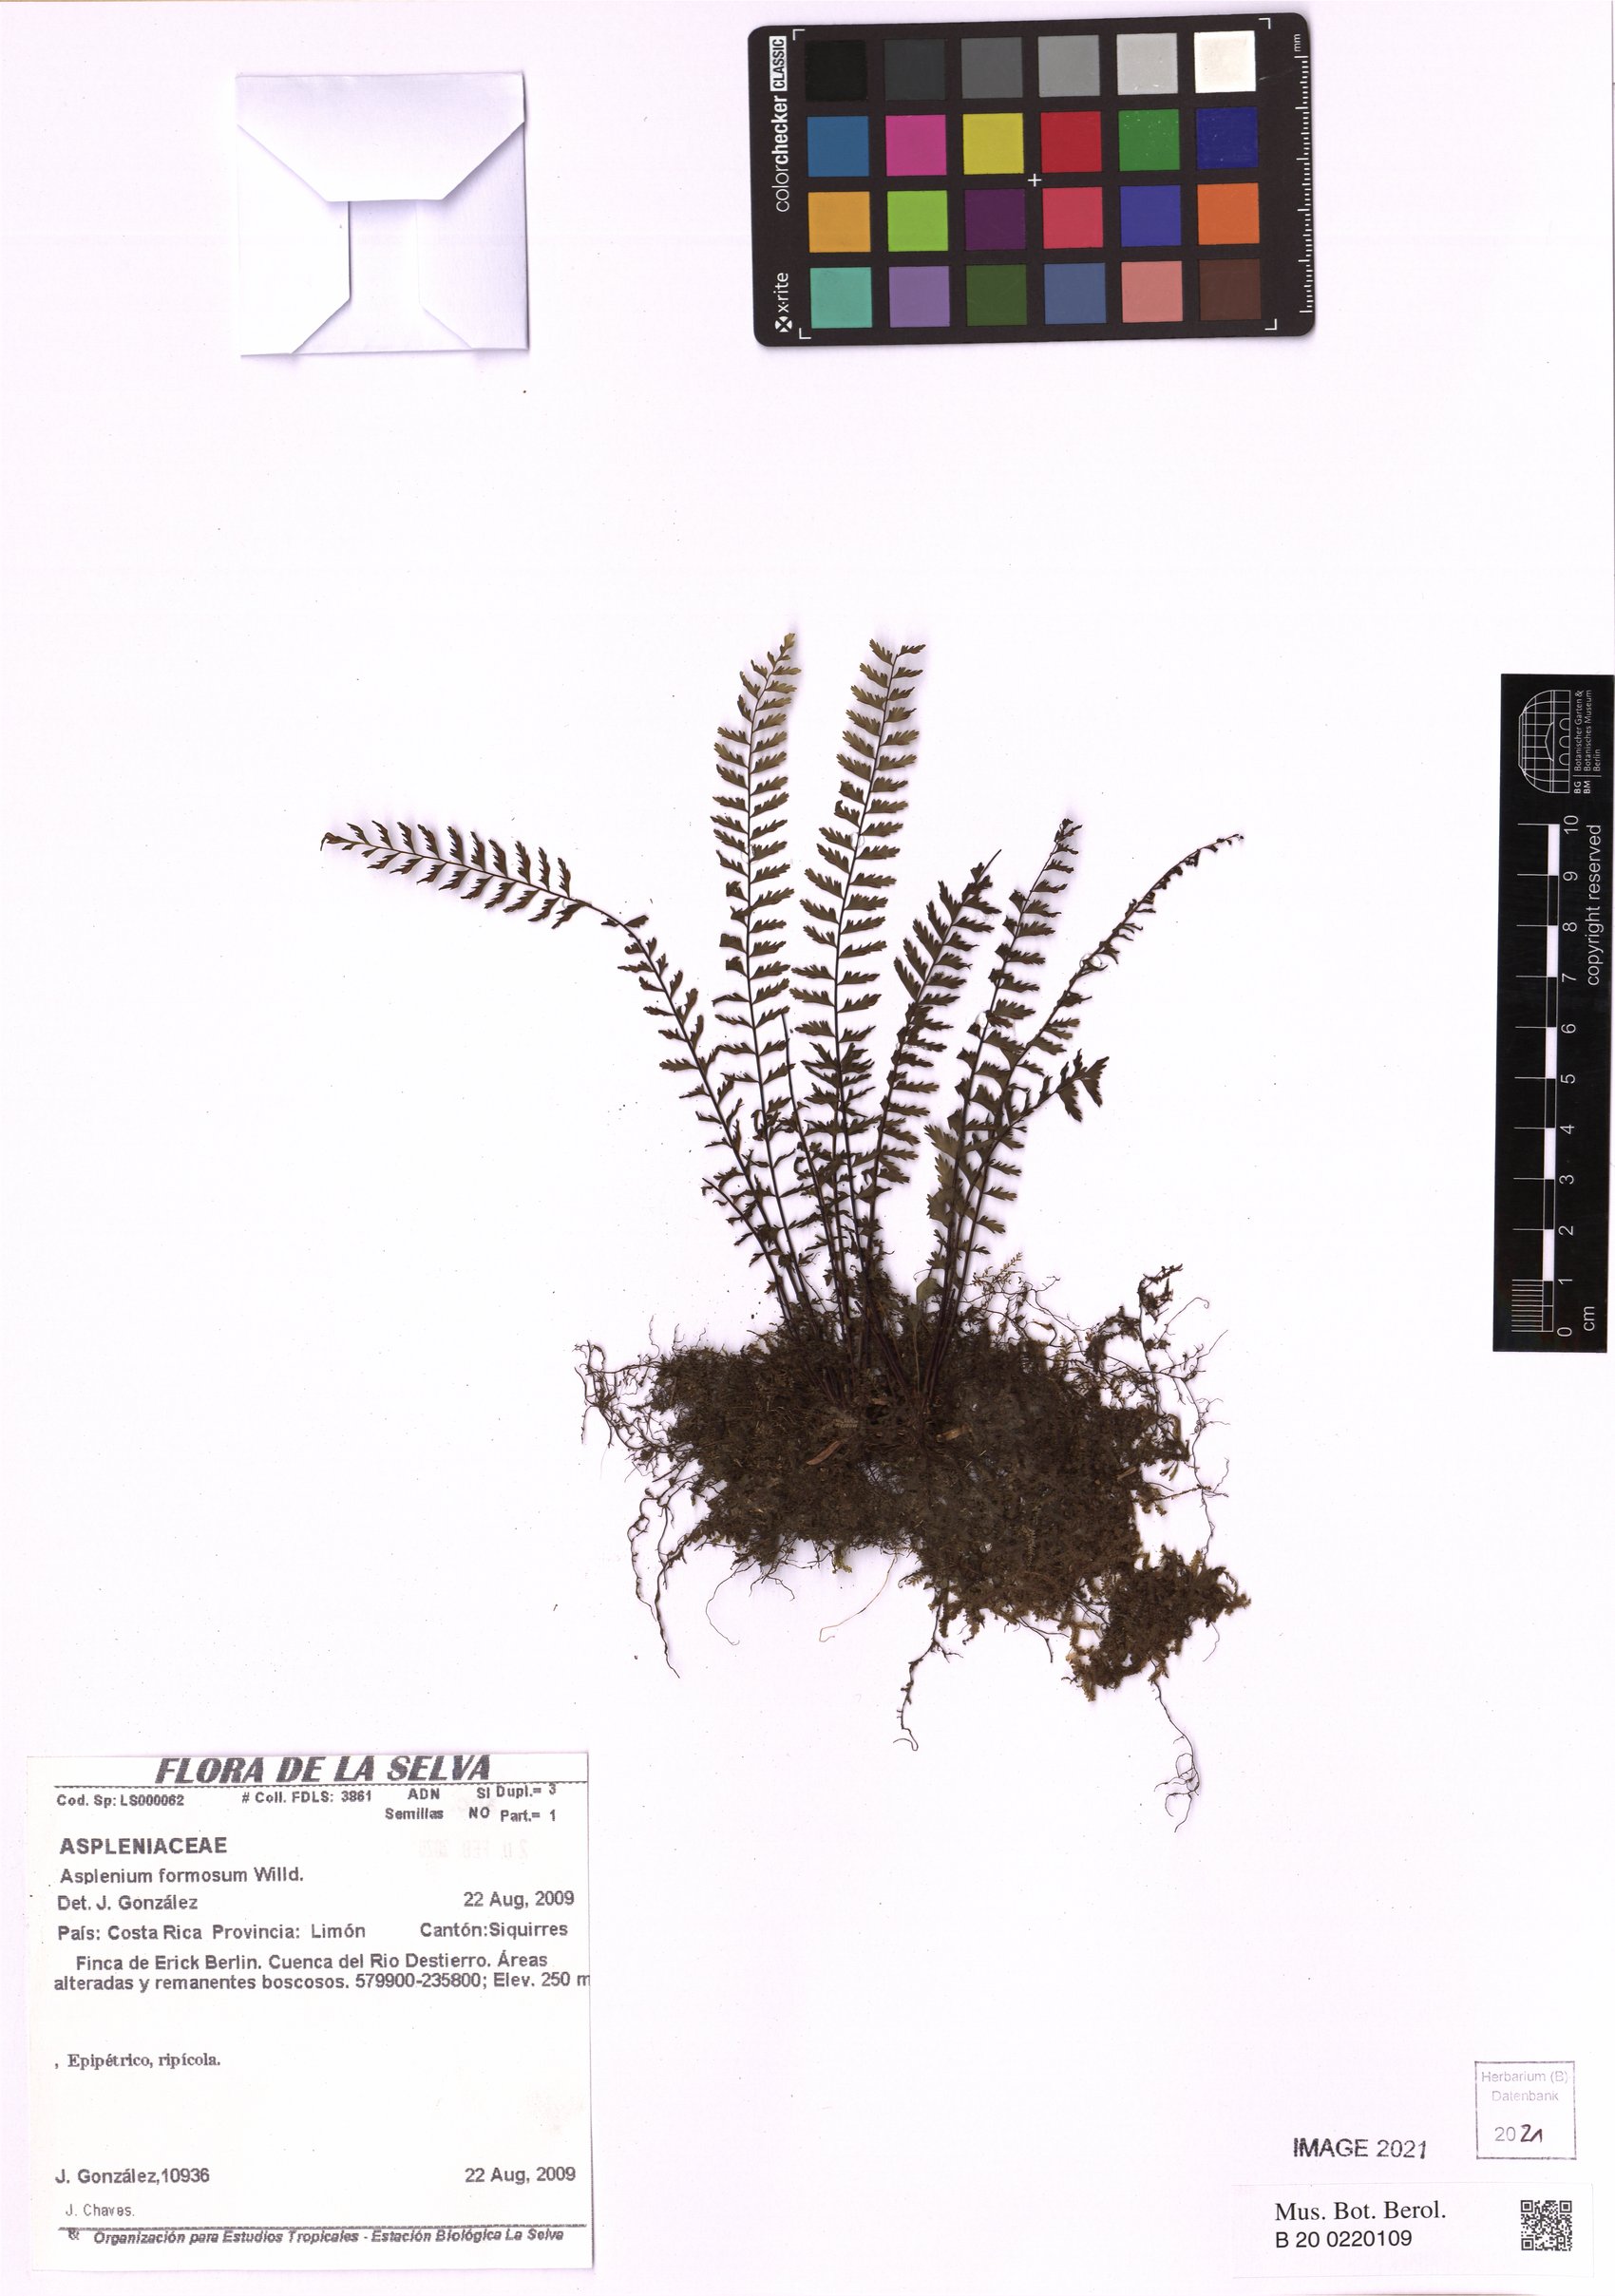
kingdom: Plantae
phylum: Tracheophyta
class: Polypodiopsida
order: Polypodiales
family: Aspleniaceae
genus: Asplenium
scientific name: Asplenium formosum
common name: Showy spleenwort
